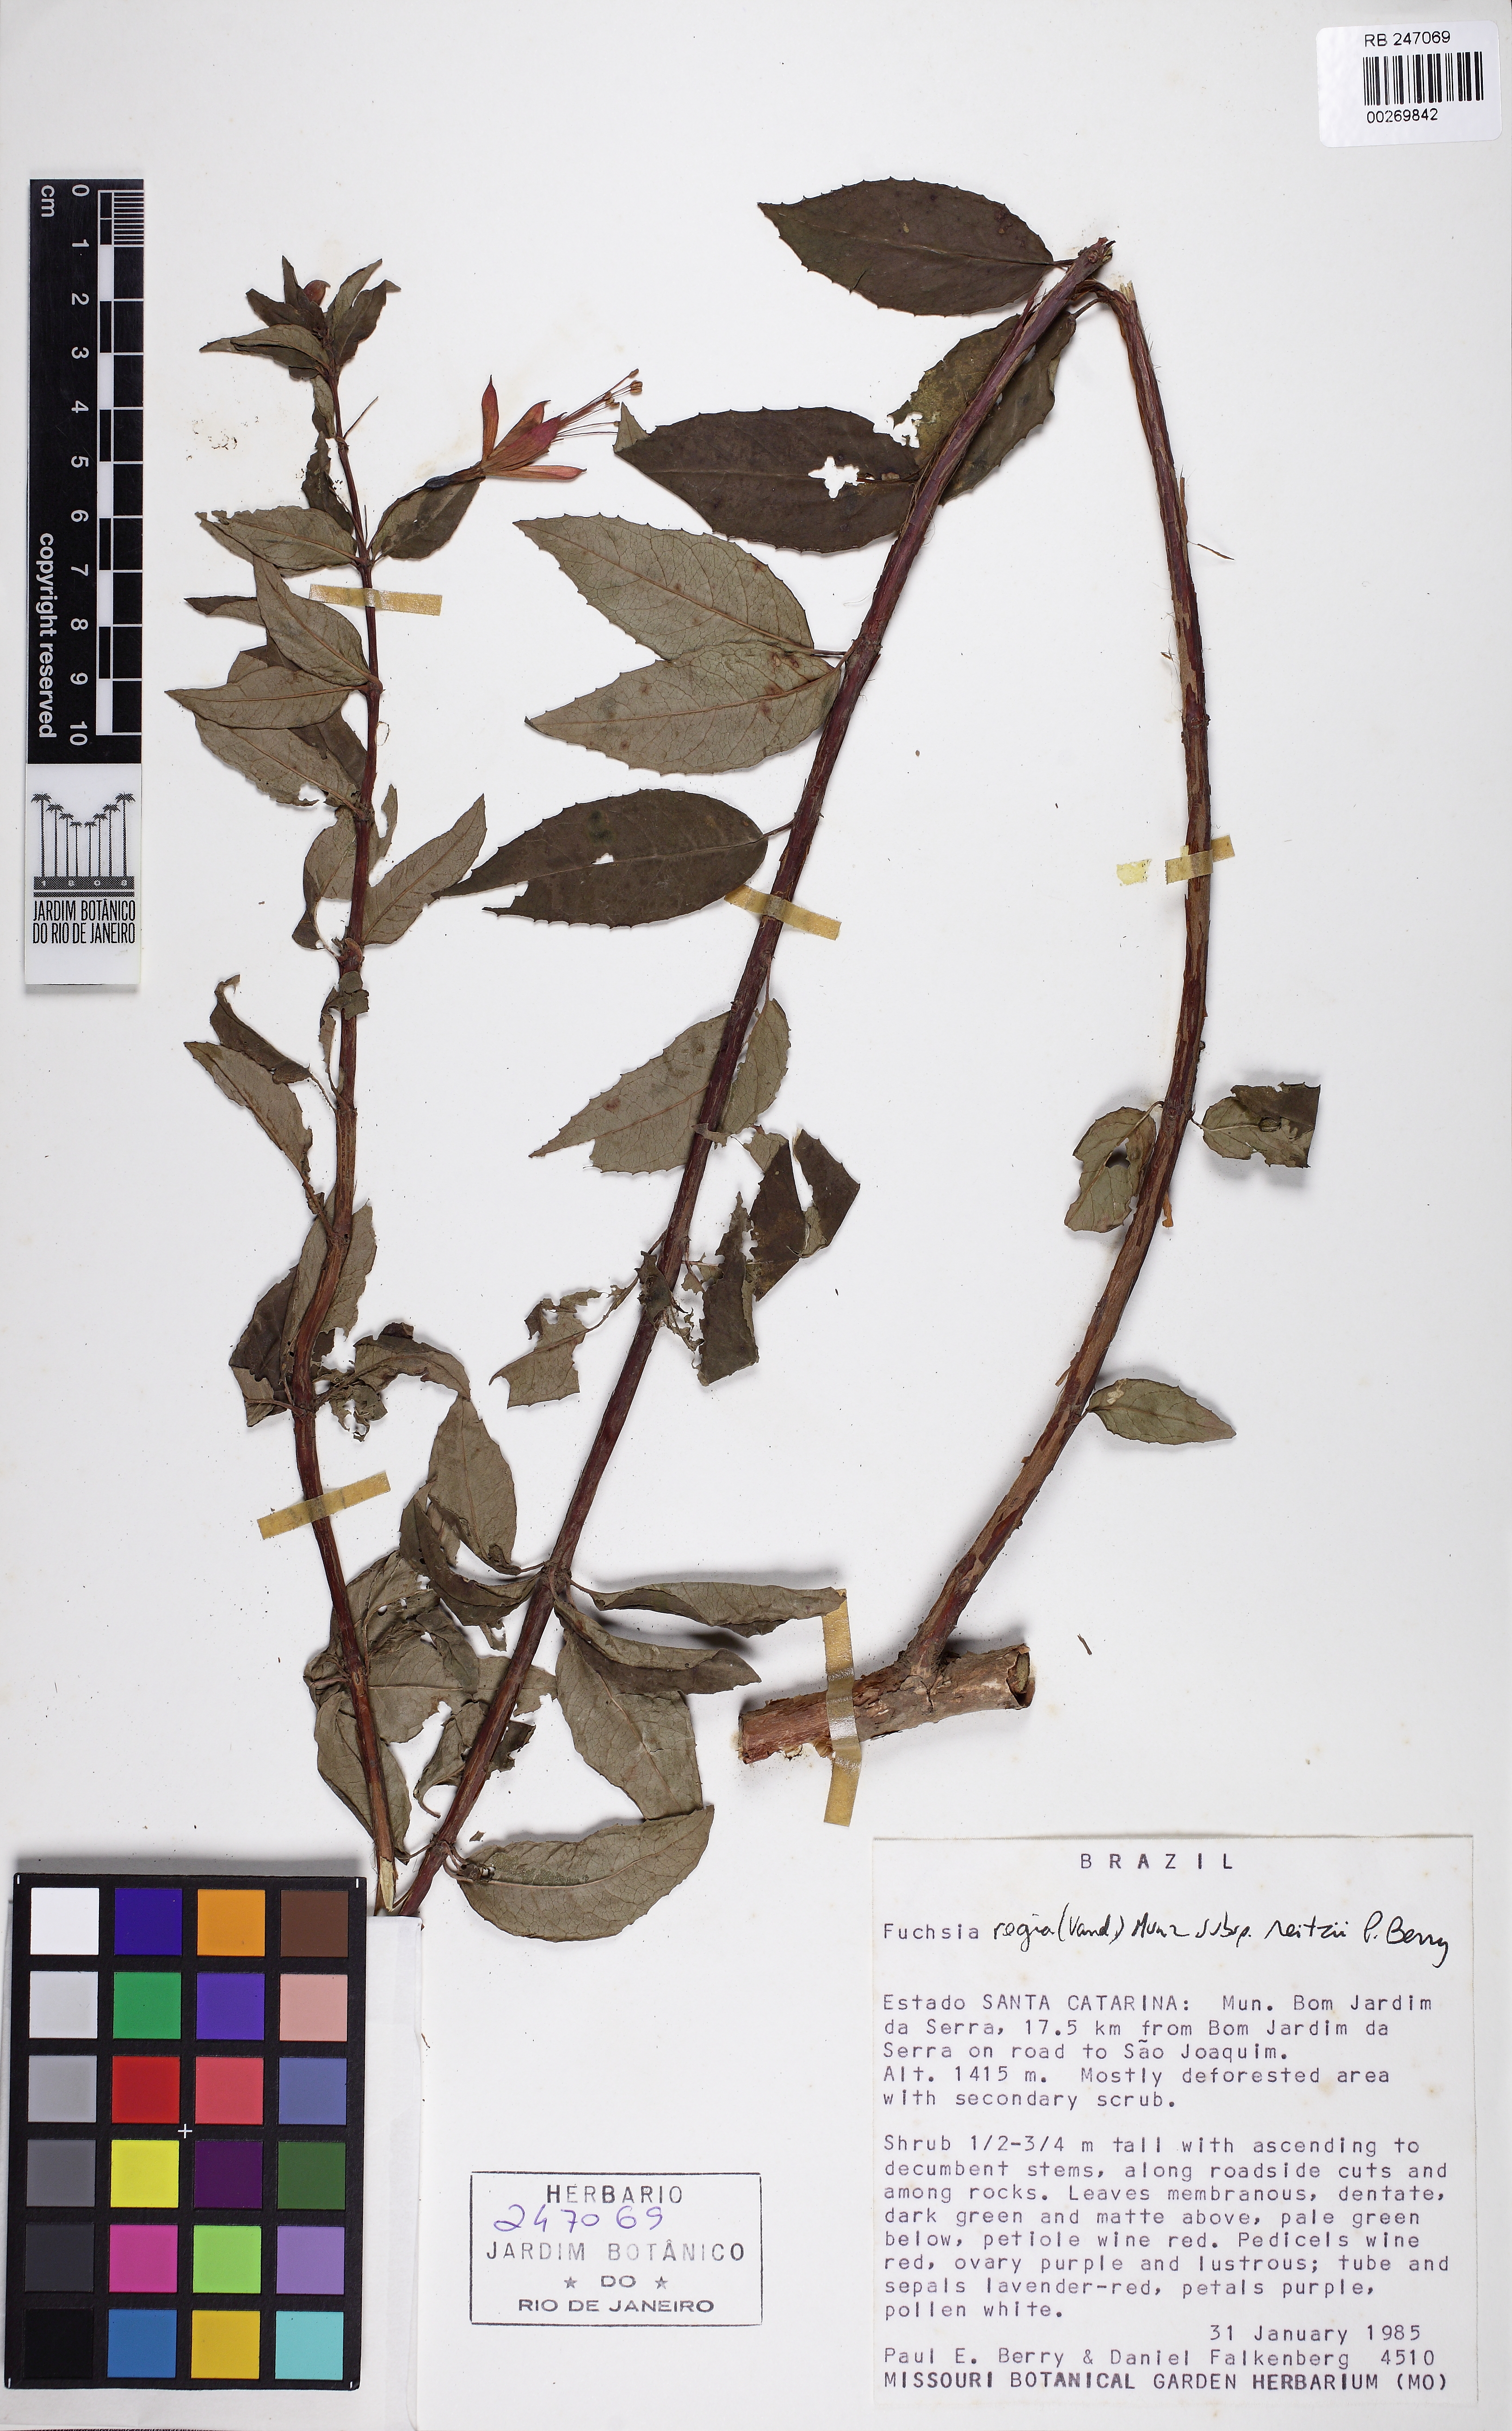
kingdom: Plantae
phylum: Tracheophyta
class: Magnoliopsida
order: Myrtales
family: Onagraceae
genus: Fuchsia
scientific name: Fuchsia regia
